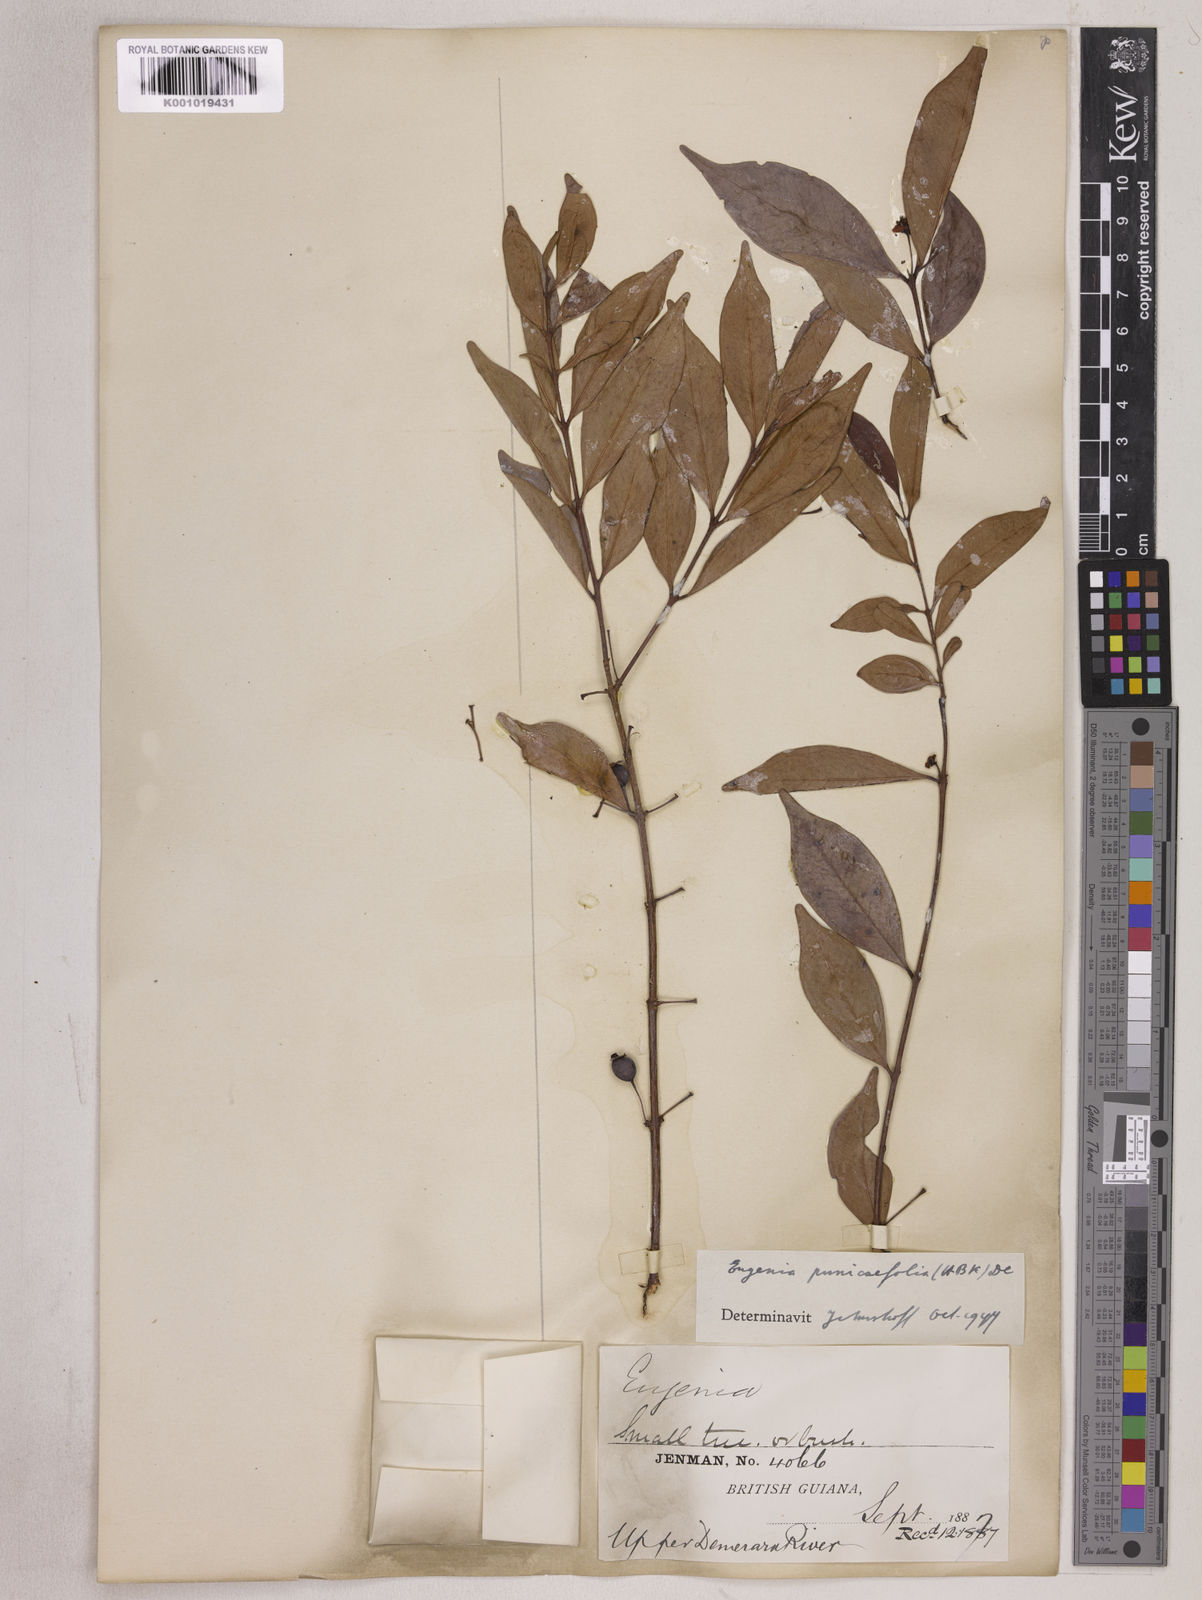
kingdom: Plantae
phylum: Tracheophyta
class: Magnoliopsida
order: Myrtales
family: Myrtaceae
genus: Eugenia
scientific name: Eugenia punicifolia
